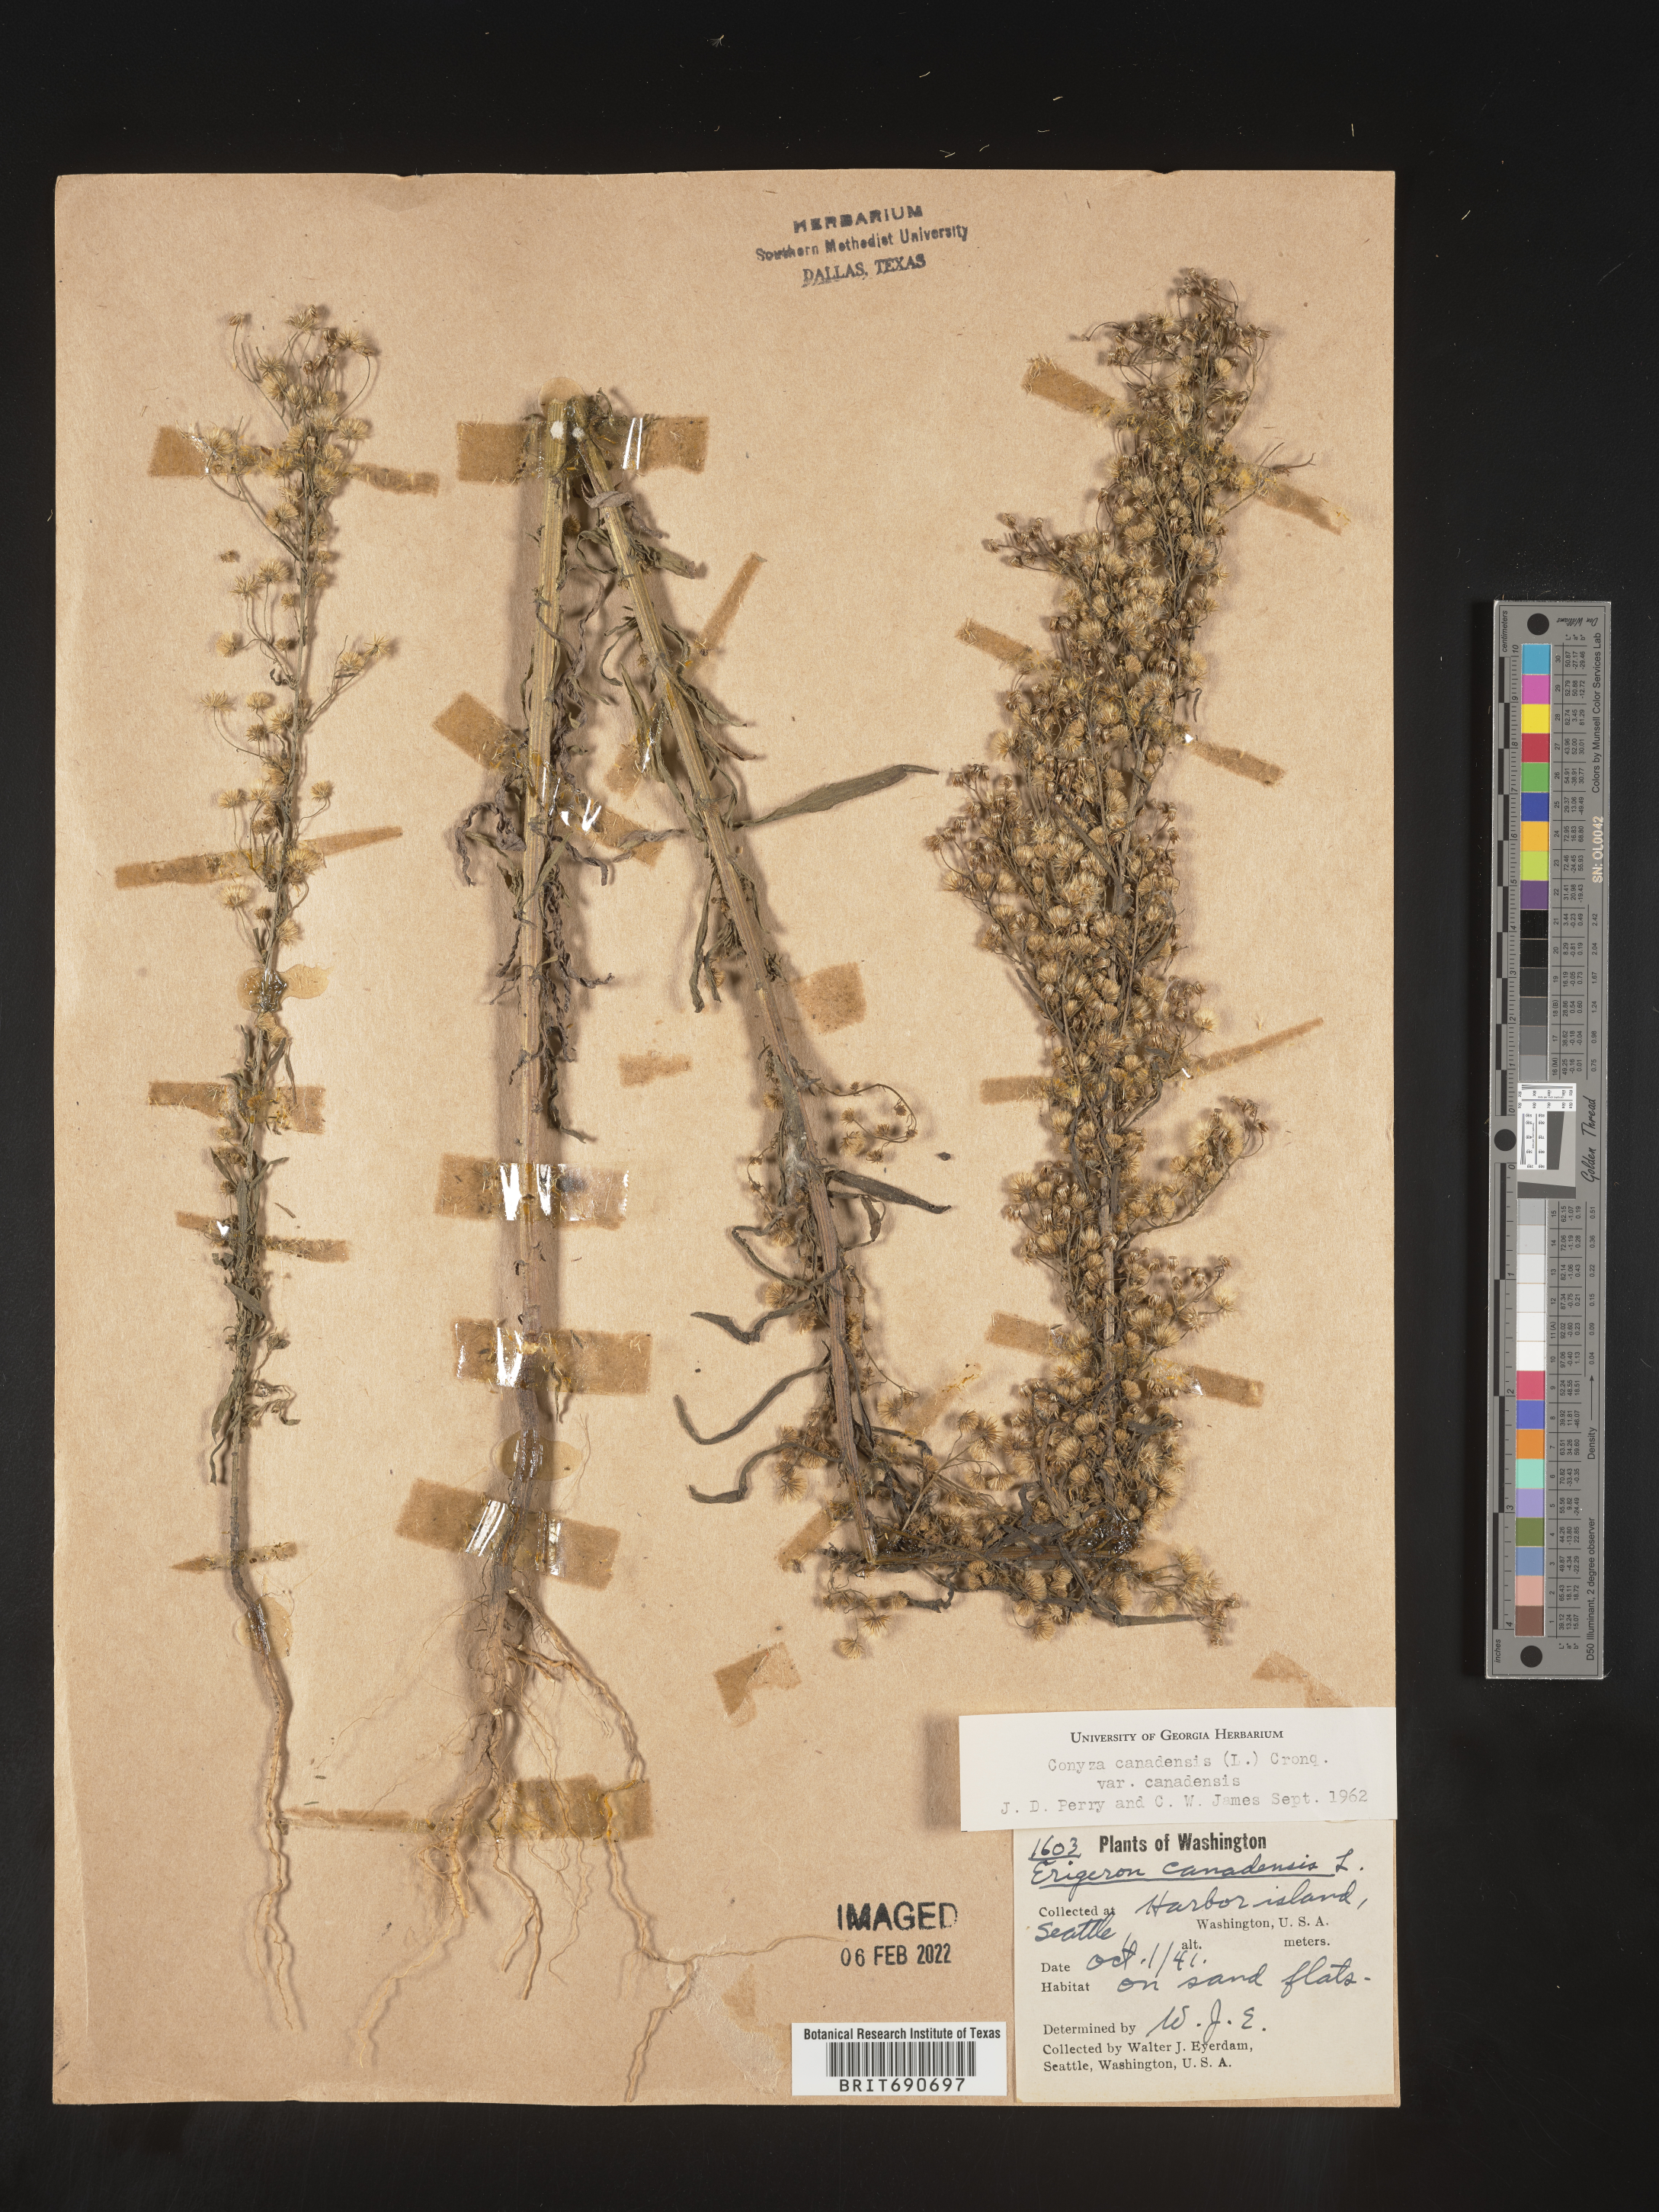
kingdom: Plantae
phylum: Tracheophyta
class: Magnoliopsida
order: Asterales
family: Asteraceae
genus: Erigeron
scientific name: Erigeron canadensis
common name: Canadian fleabane
